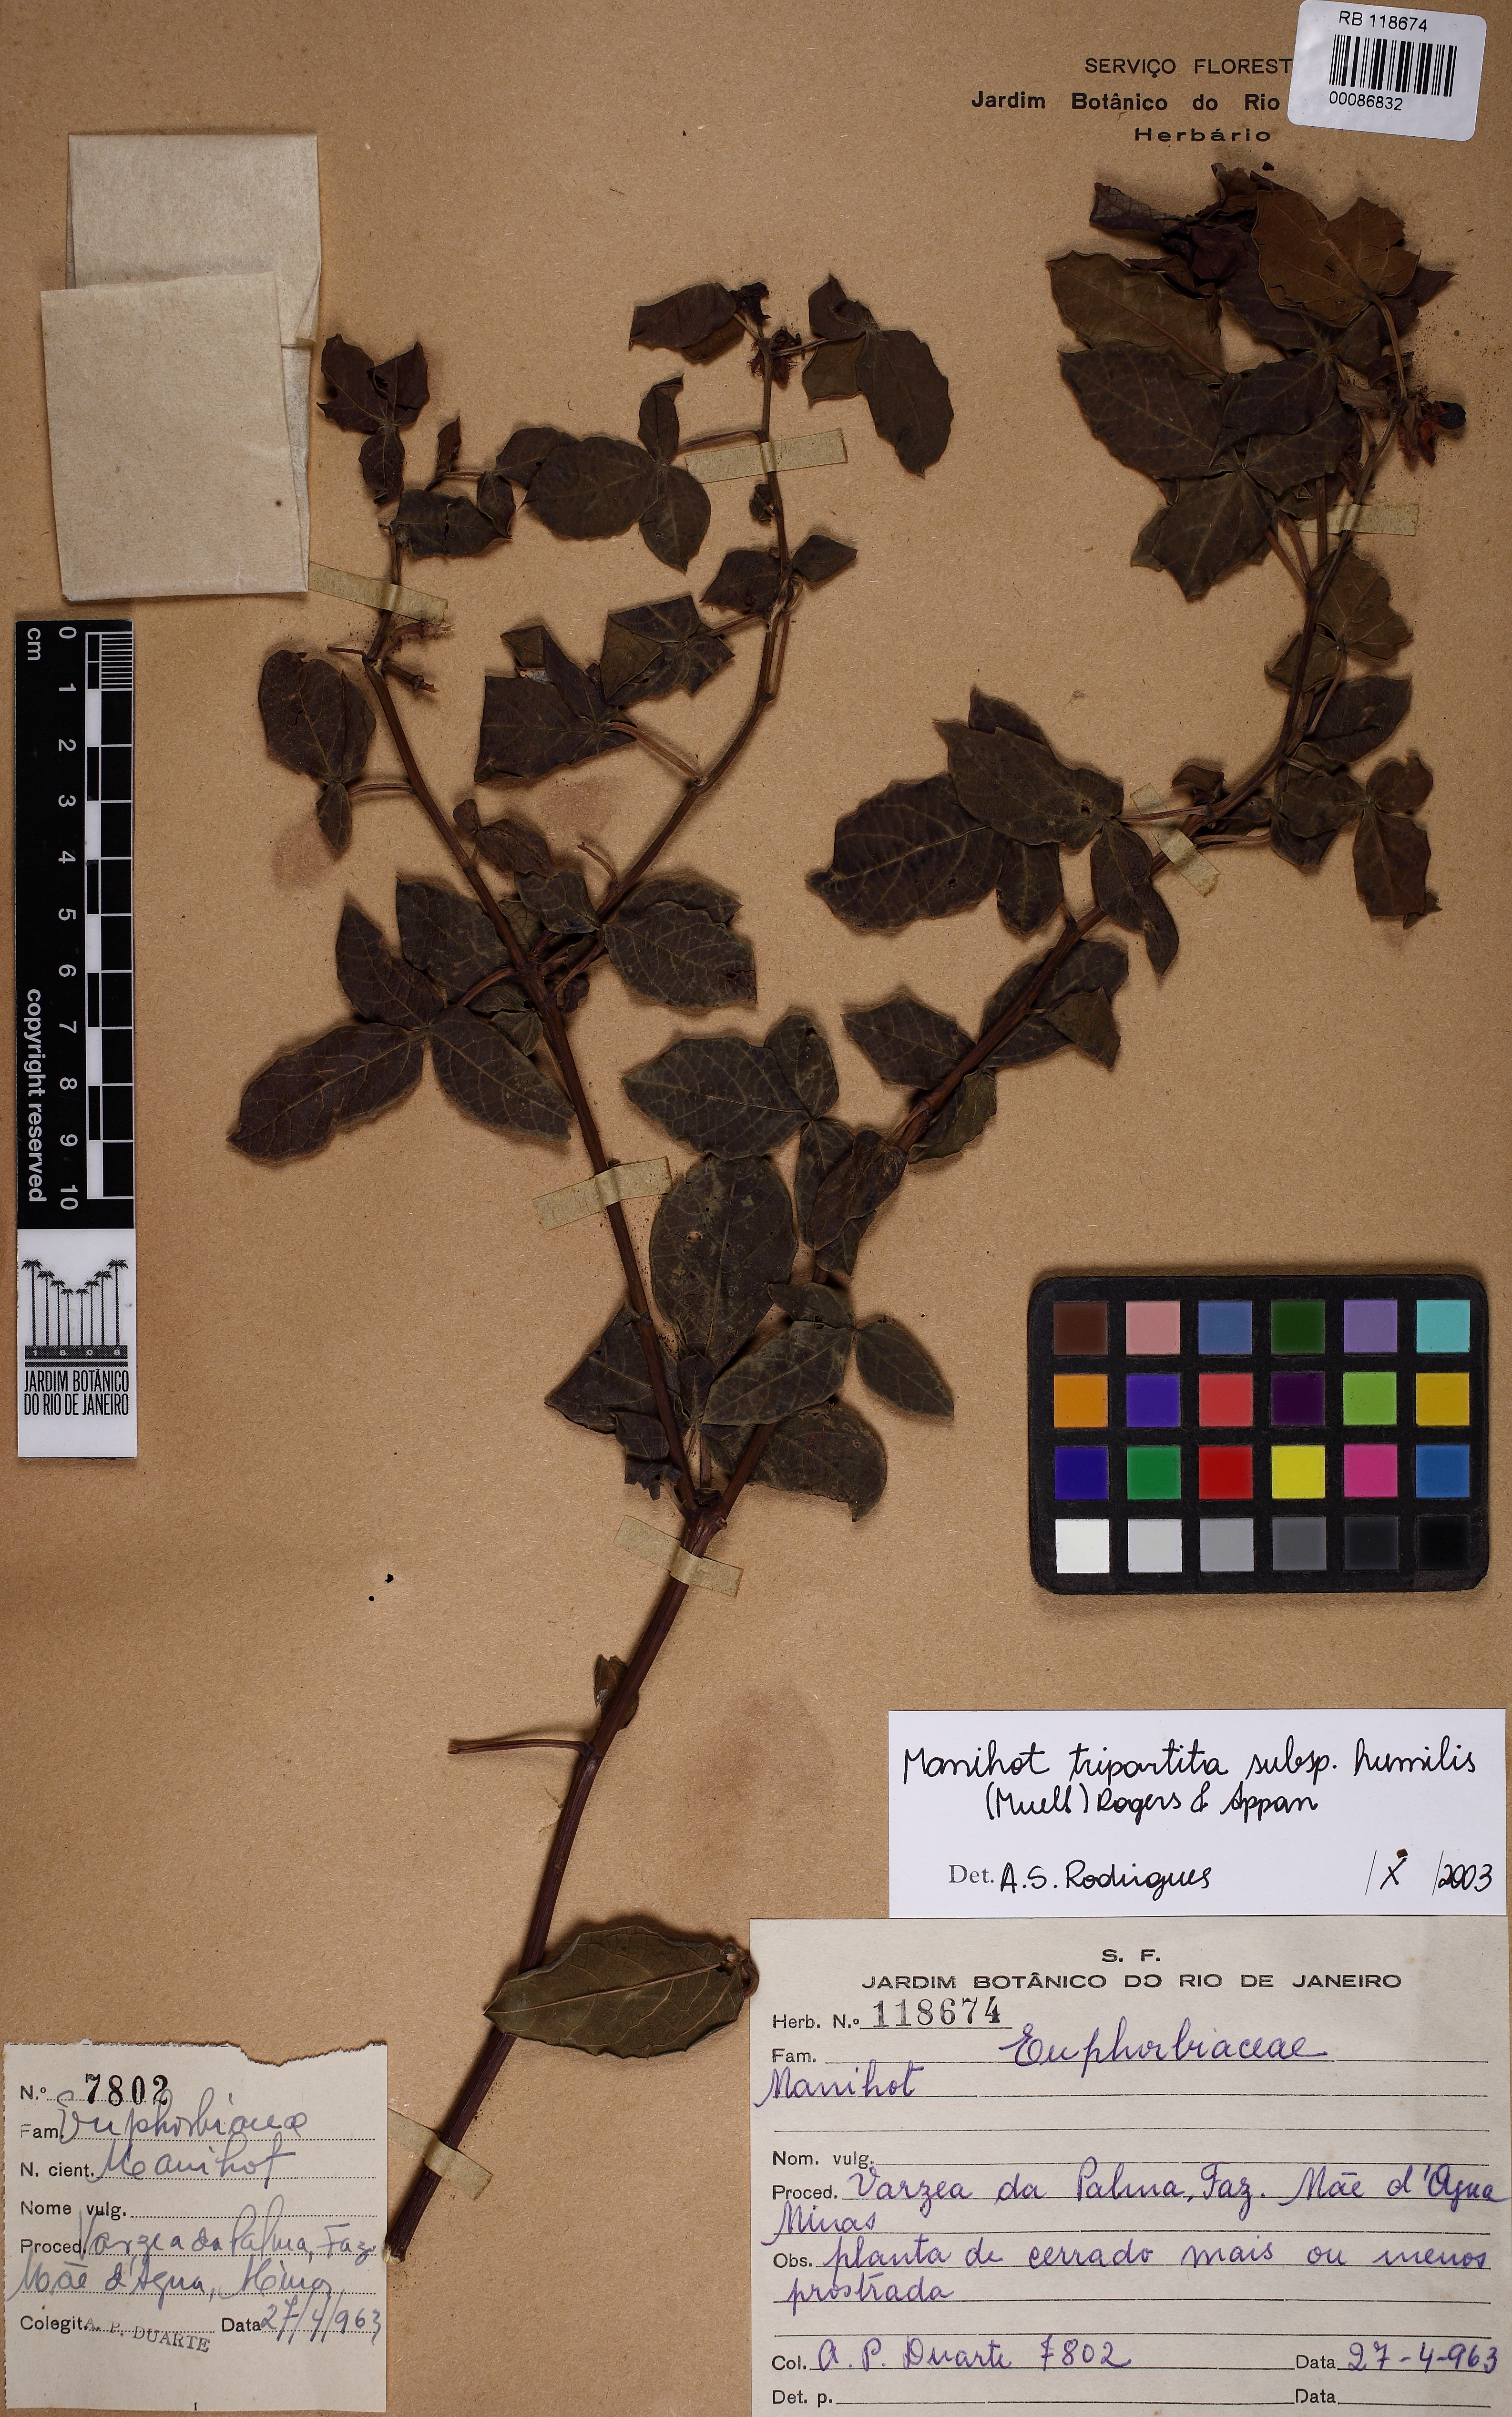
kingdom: Plantae
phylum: Tracheophyta
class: Magnoliopsida
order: Malpighiales
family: Euphorbiaceae
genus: Manihot
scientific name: Manihot tripartita
